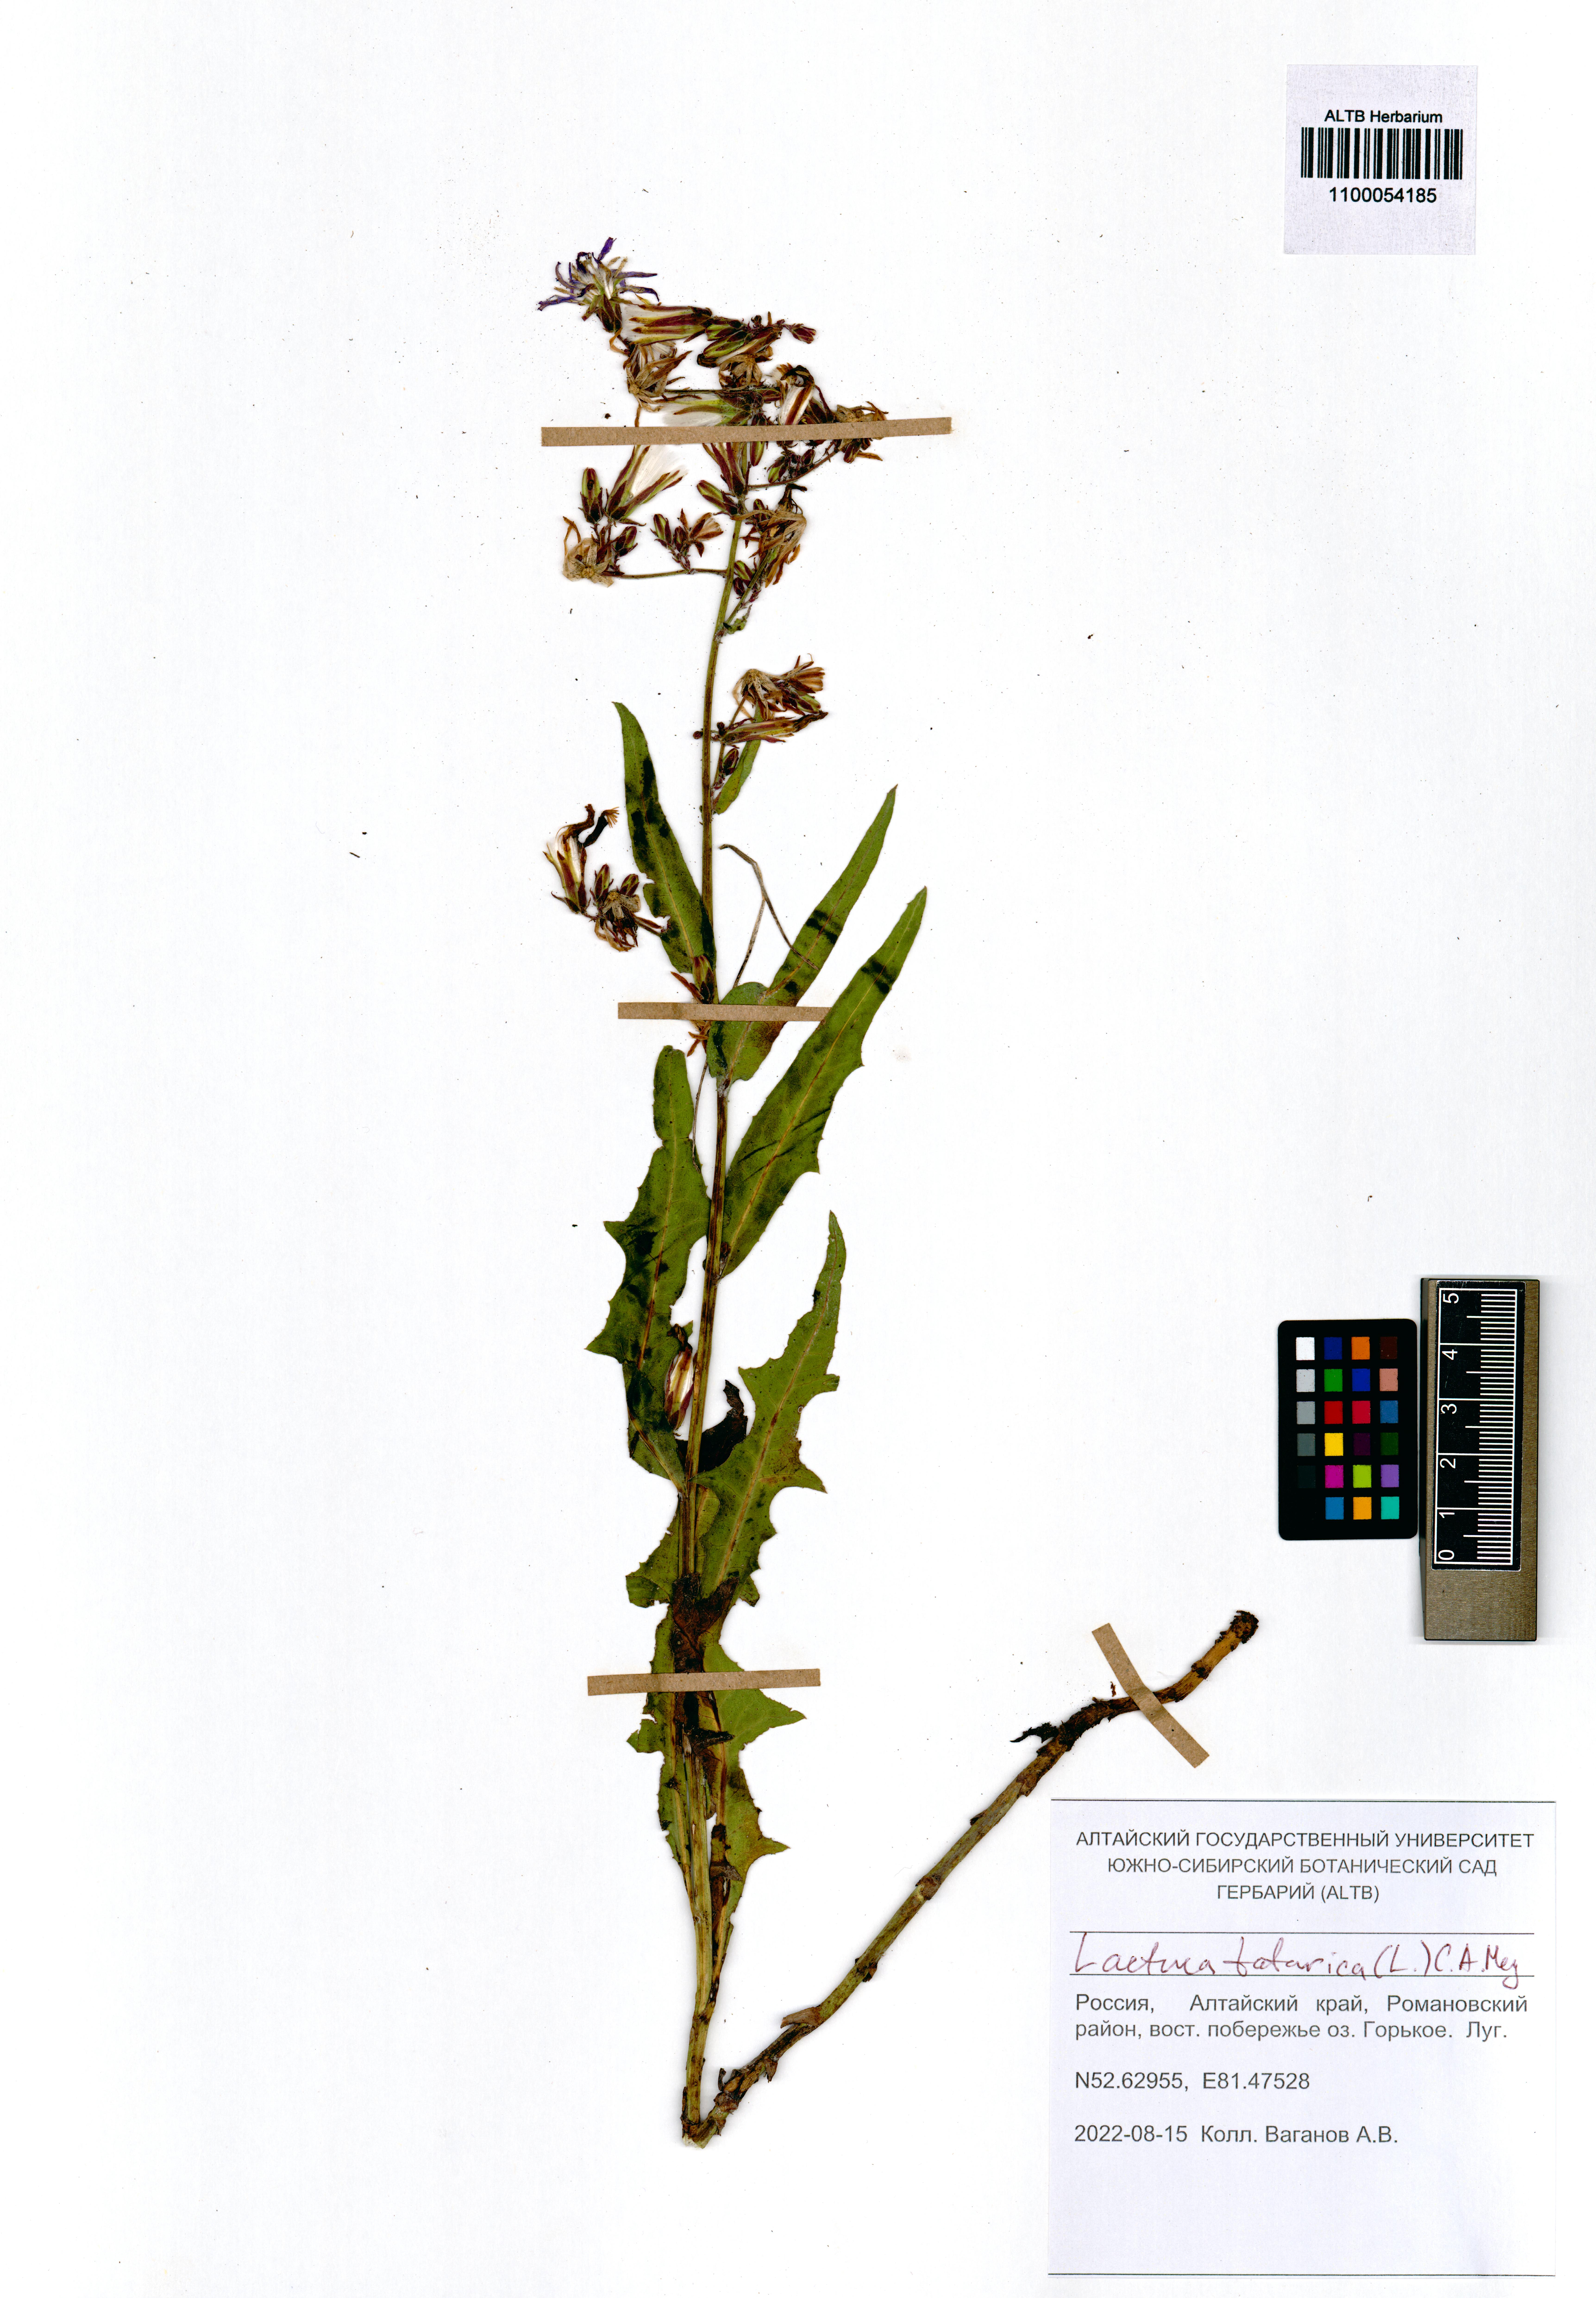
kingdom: Plantae
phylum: Tracheophyta
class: Magnoliopsida
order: Asterales
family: Asteraceae
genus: Lactuca
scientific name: Lactuca tatarica
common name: Blue lettuce
